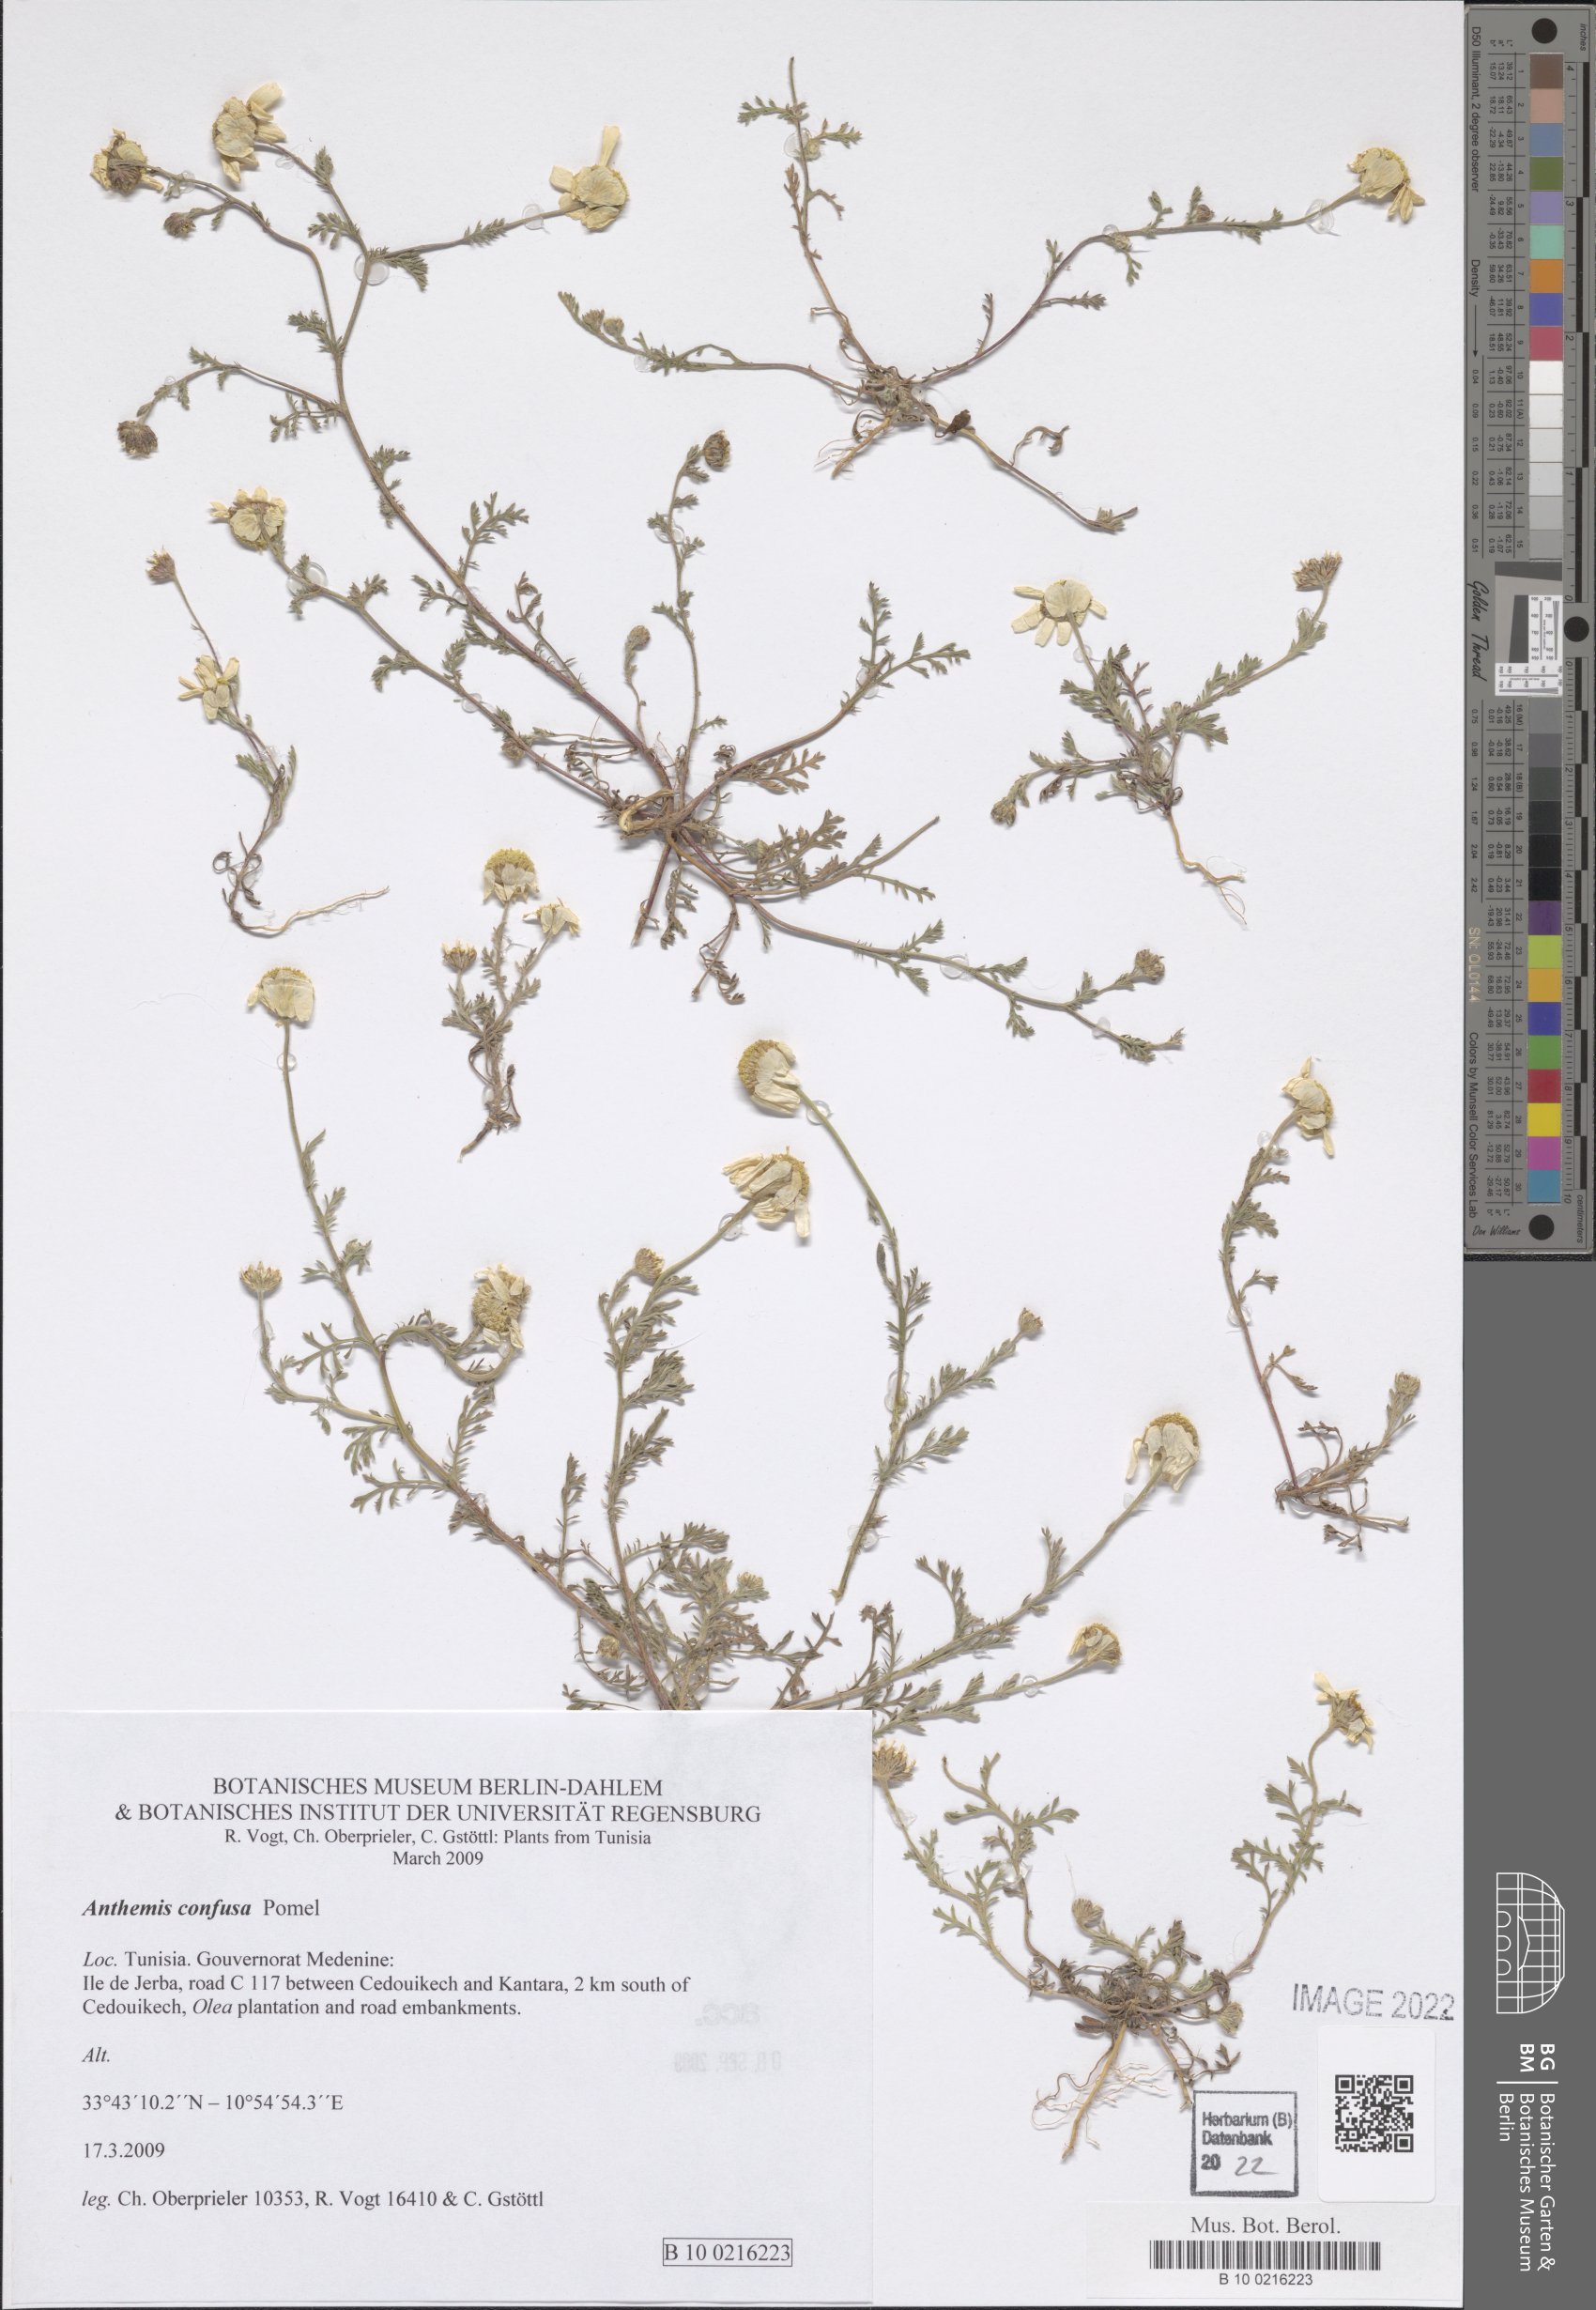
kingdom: Plantae
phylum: Tracheophyta
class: Magnoliopsida
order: Asterales
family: Asteraceae
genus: Anthemis
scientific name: Anthemis confusa
